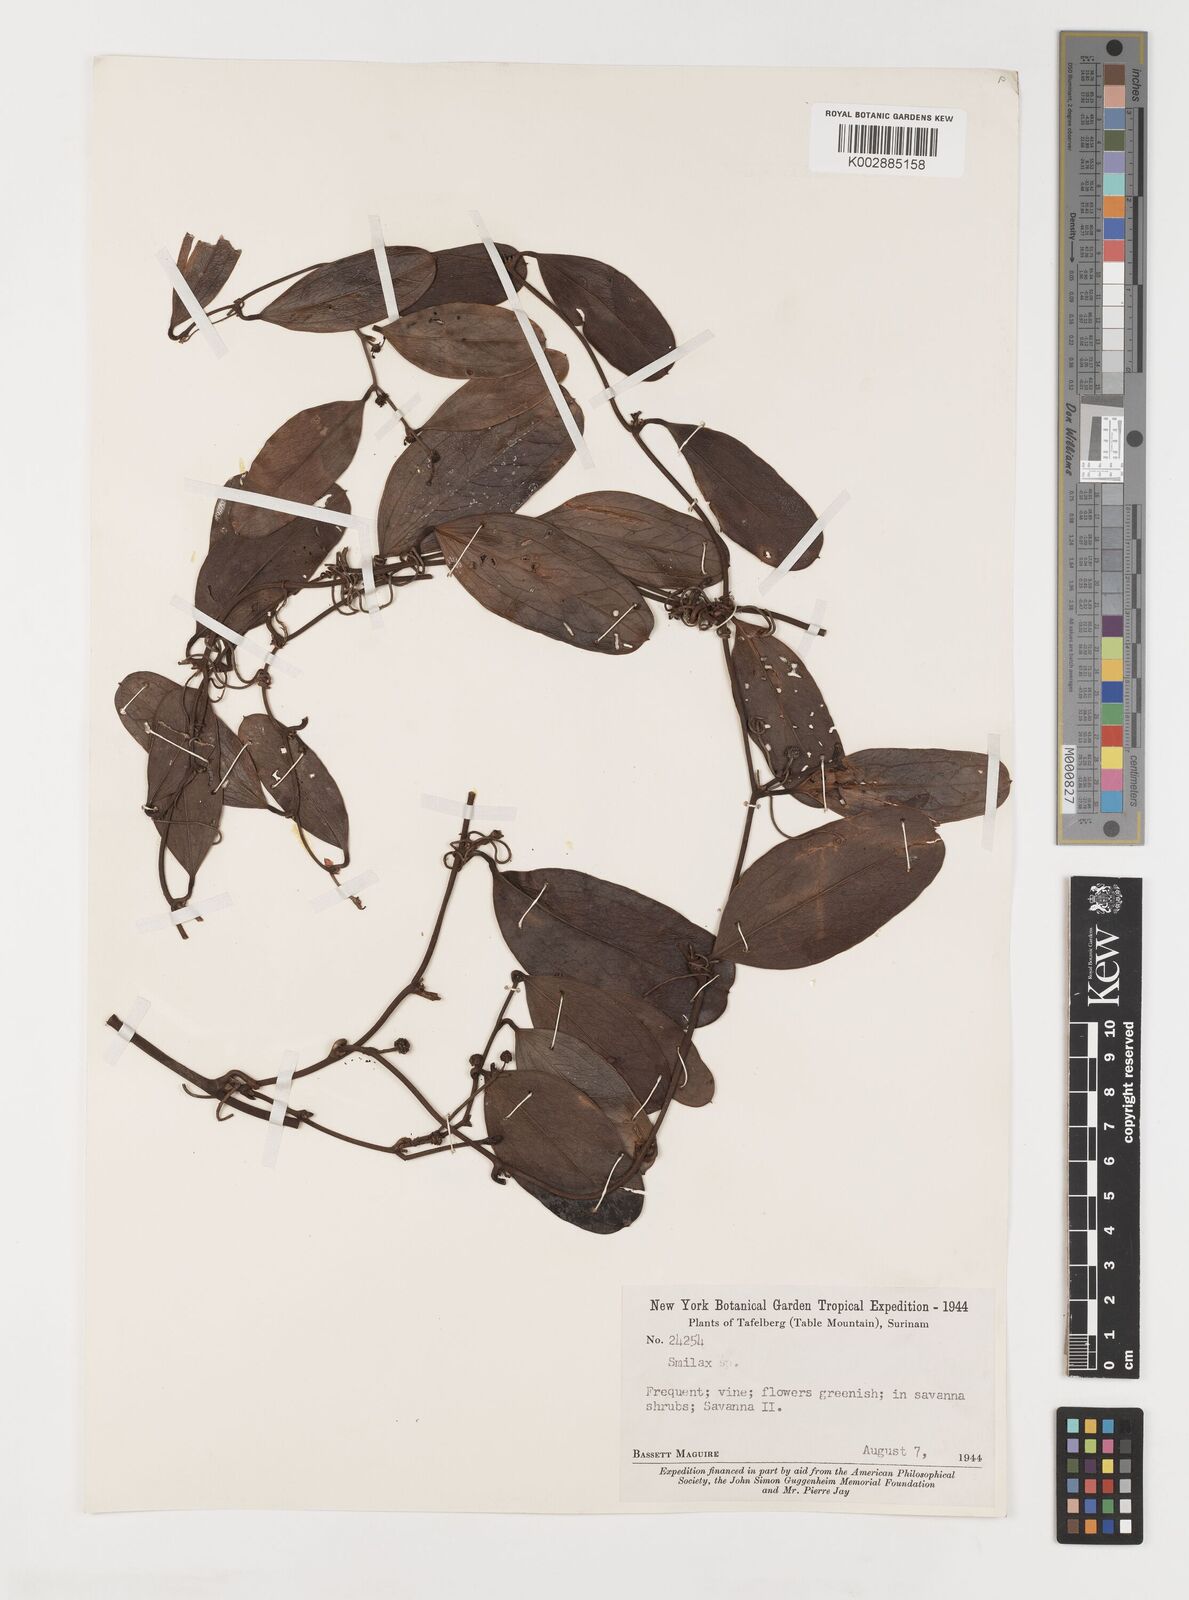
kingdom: Plantae
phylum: Tracheophyta
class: Liliopsida
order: Liliales
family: Smilacaceae
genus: Smilax
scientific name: Smilax
